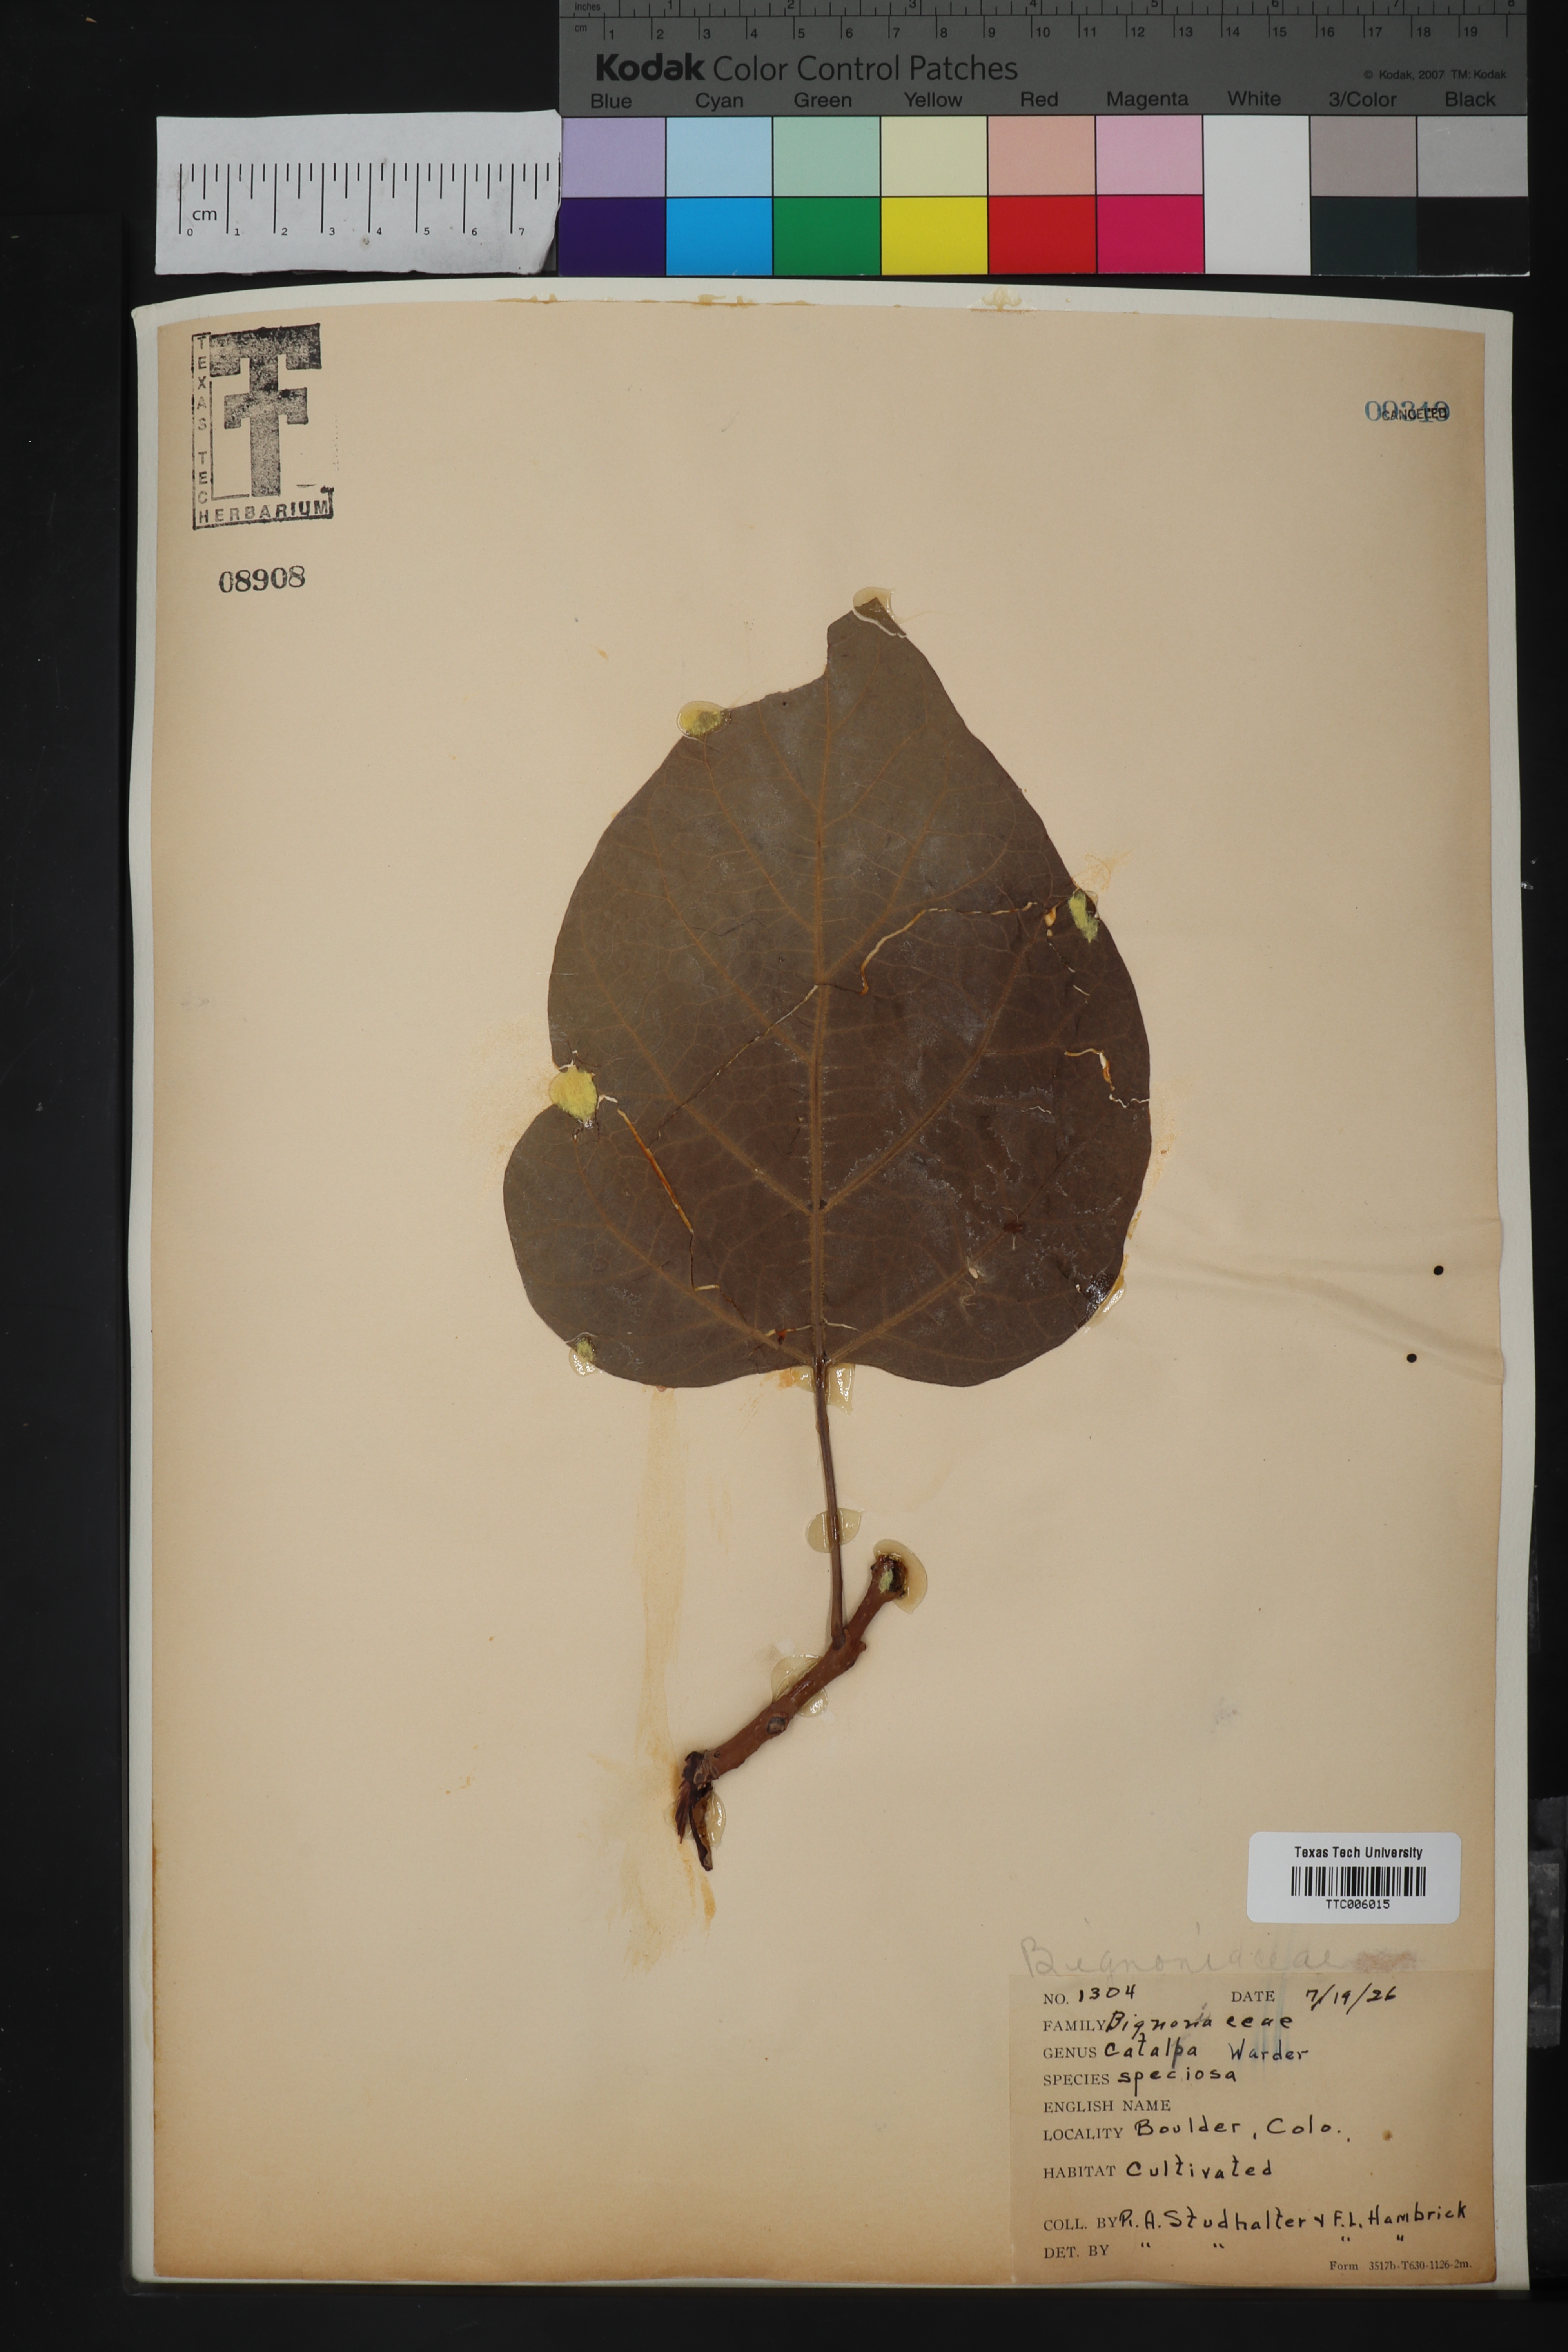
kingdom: Plantae
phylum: Tracheophyta
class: Magnoliopsida
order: Lamiales
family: Bignoniaceae
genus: Catalpa
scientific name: Catalpa speciosa
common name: Northern catalpa
